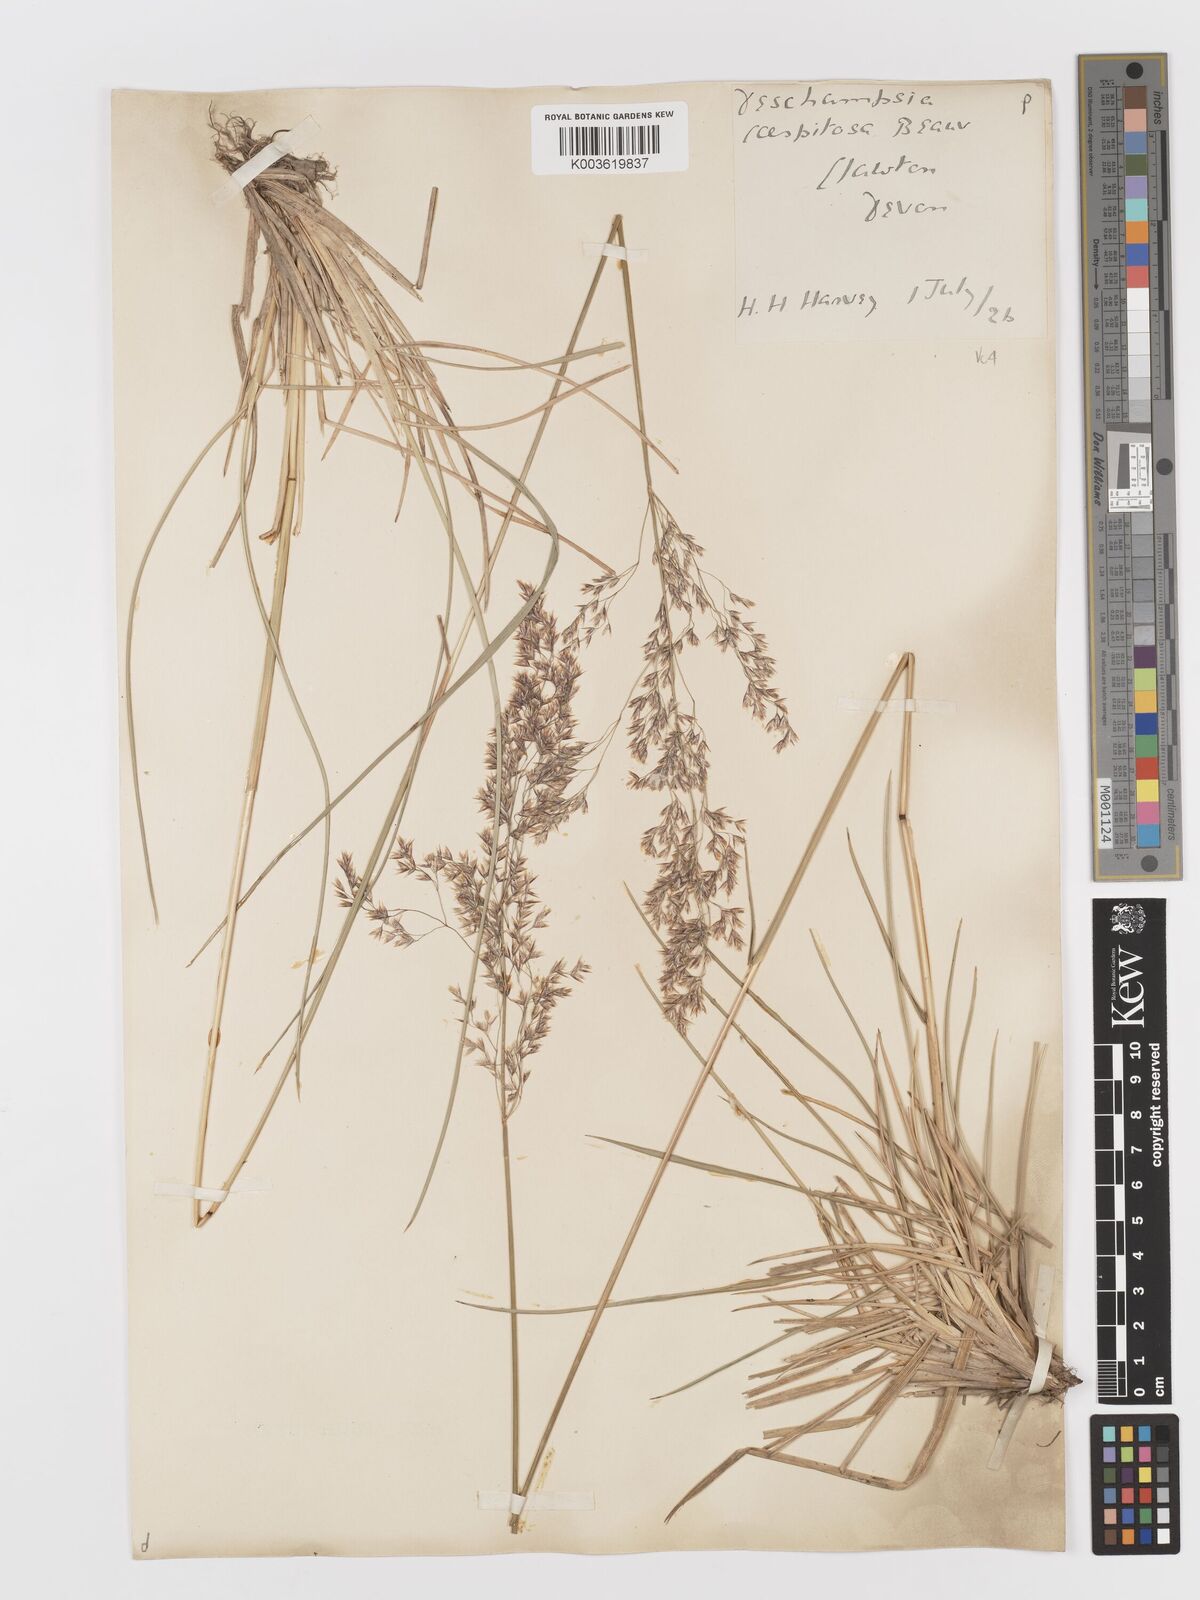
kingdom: Plantae
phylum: Tracheophyta
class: Liliopsida
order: Poales
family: Poaceae
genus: Deschampsia
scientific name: Deschampsia cespitosa
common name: Tufted hair-grass
